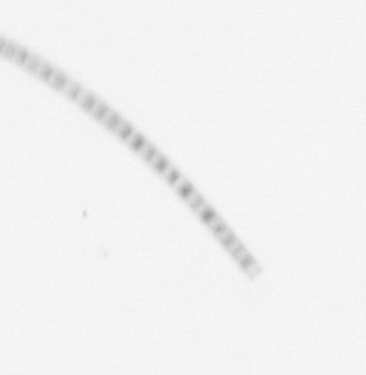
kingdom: Chromista
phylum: Ochrophyta
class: Bacillariophyceae
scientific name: Bacillariophyceae
